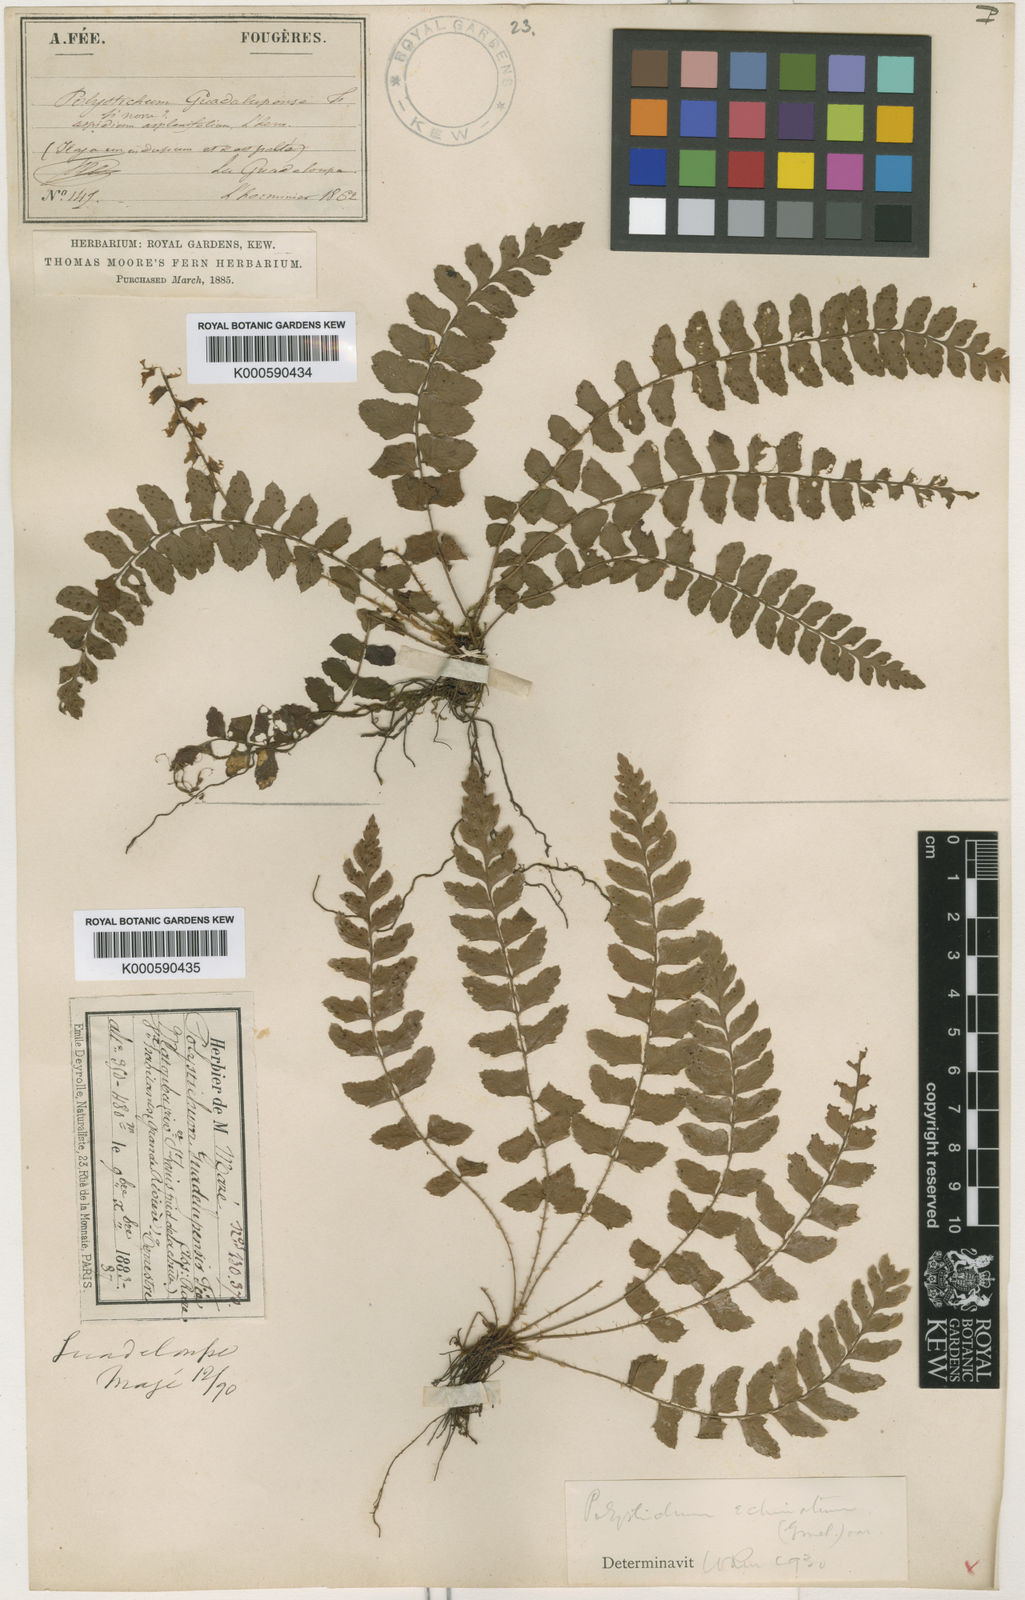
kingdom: Plantae
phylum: Tracheophyta
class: Polypodiopsida
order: Polypodiales
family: Dryopteridaceae
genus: Polystichum
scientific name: Polystichum
